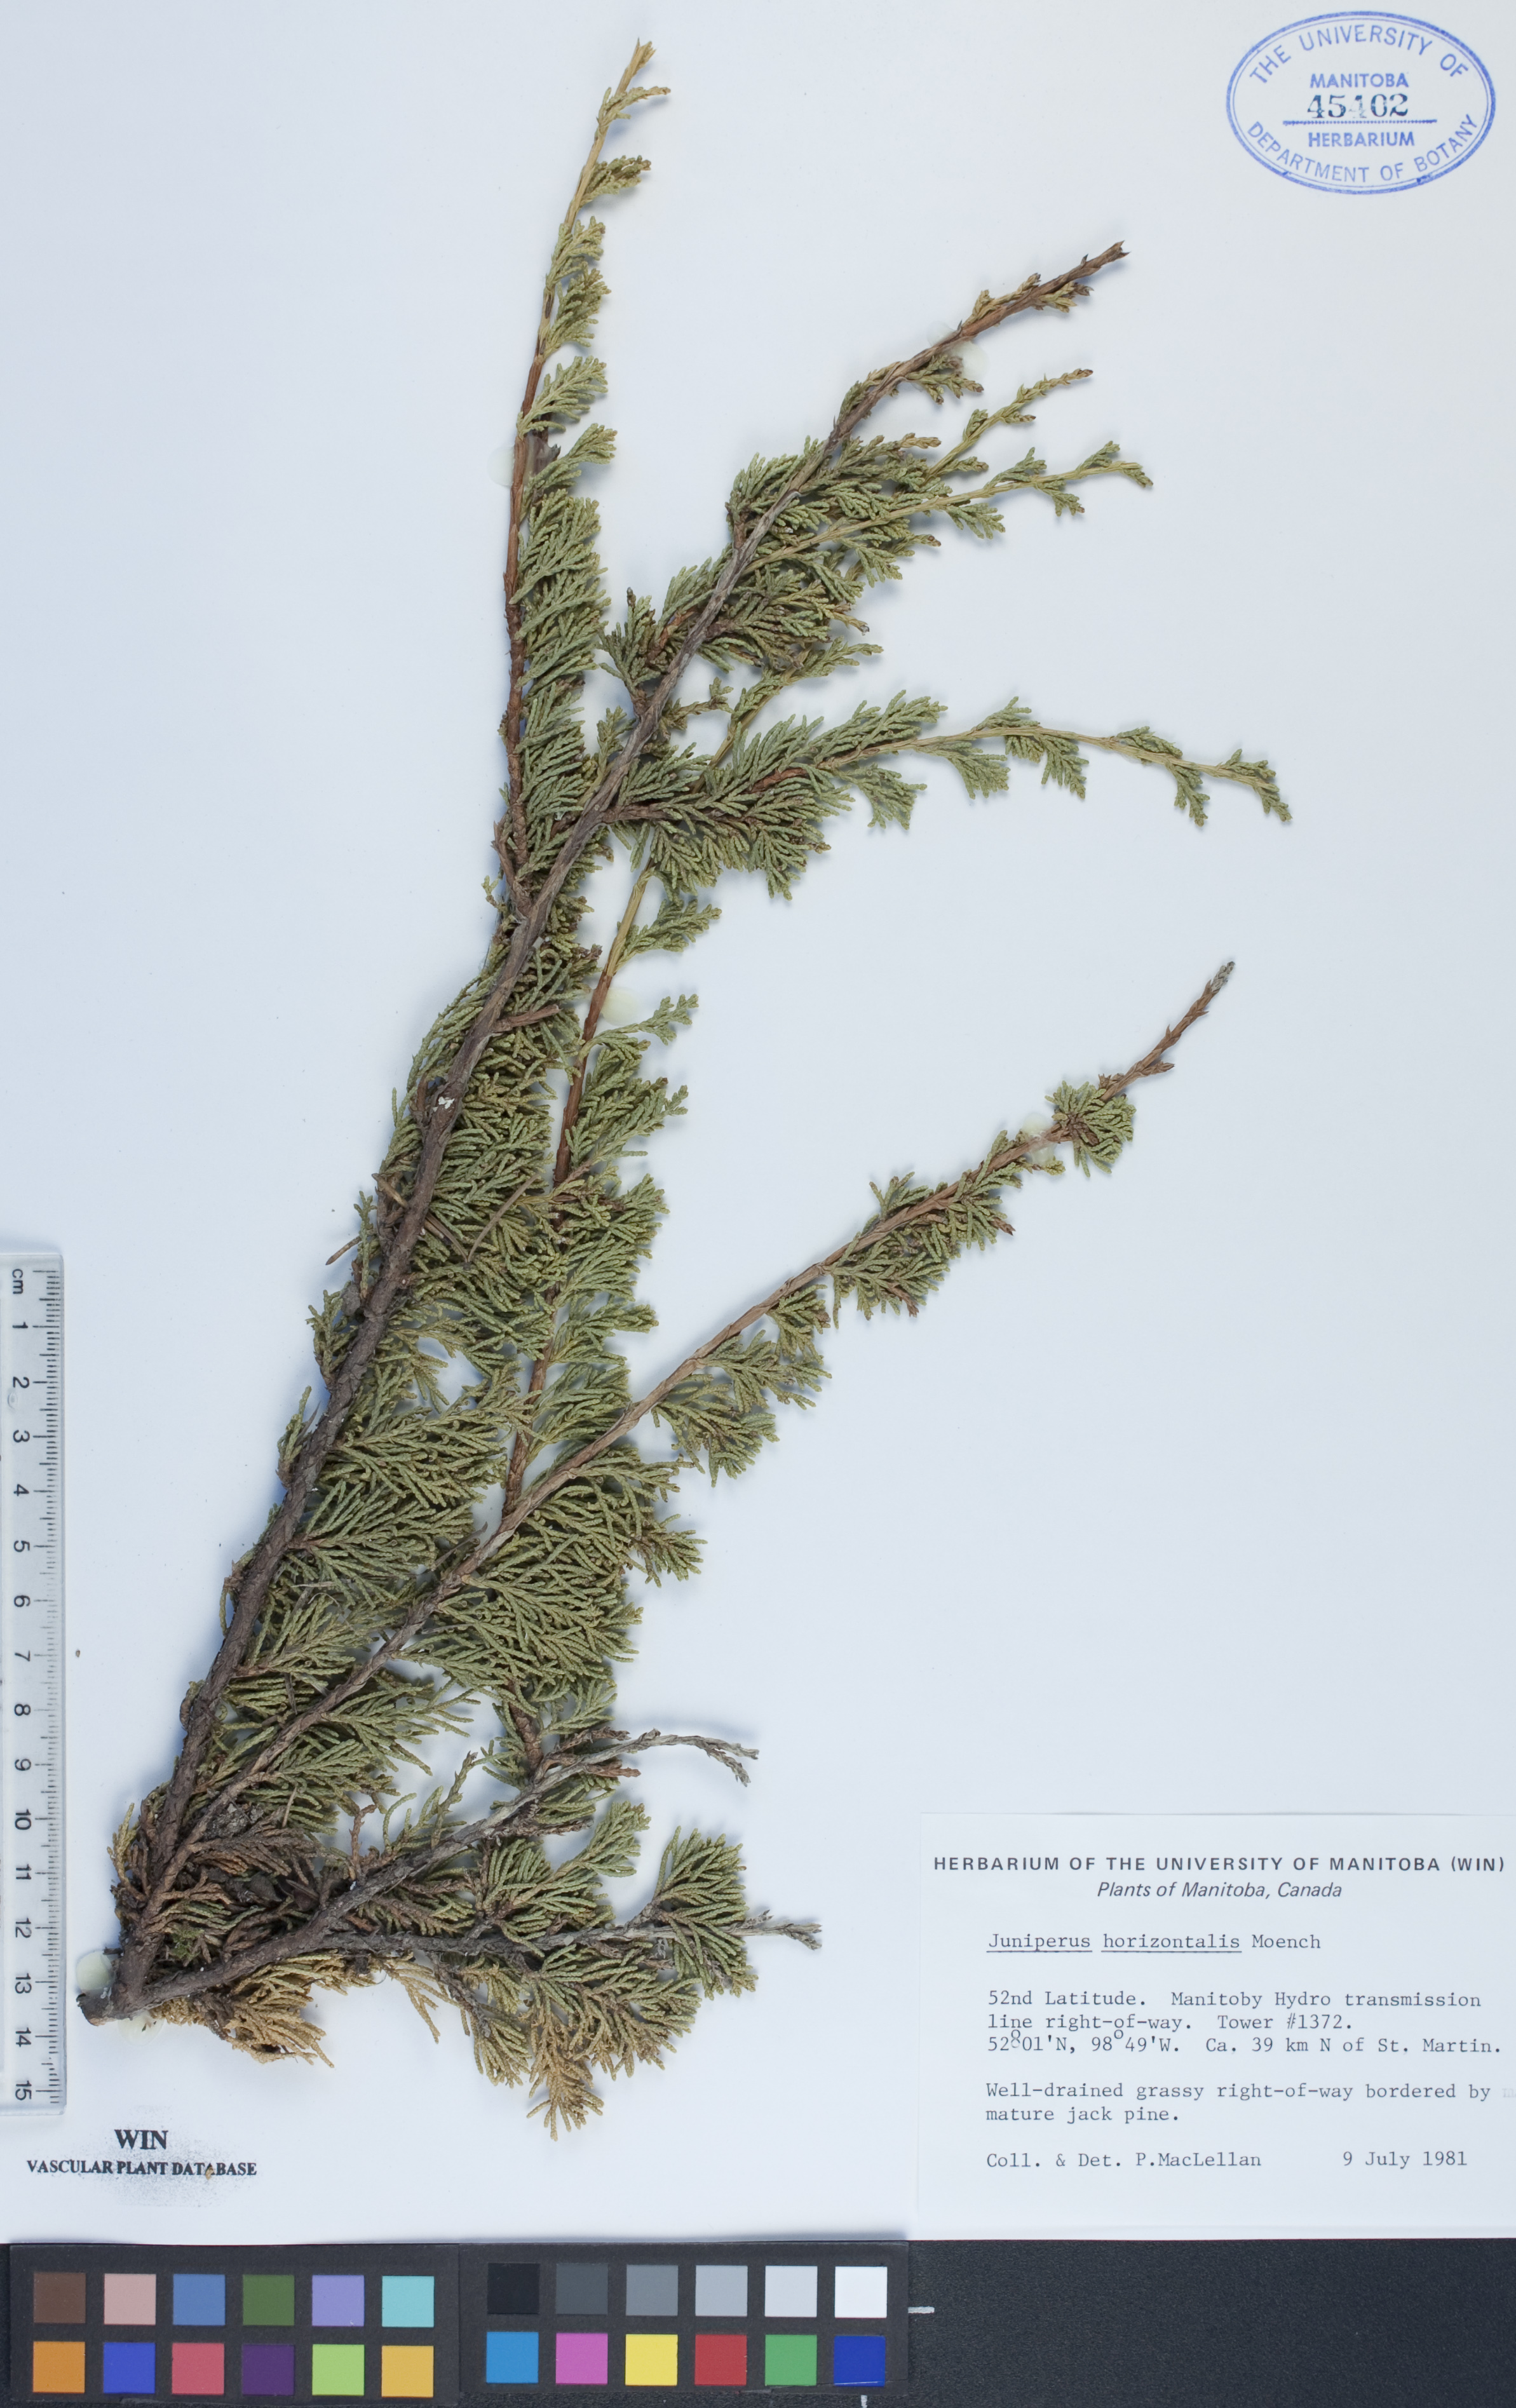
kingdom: Plantae
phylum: Tracheophyta
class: Pinopsida
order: Pinales
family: Cupressaceae
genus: Juniperus
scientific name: Juniperus horizontalis
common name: Creeping juniper
